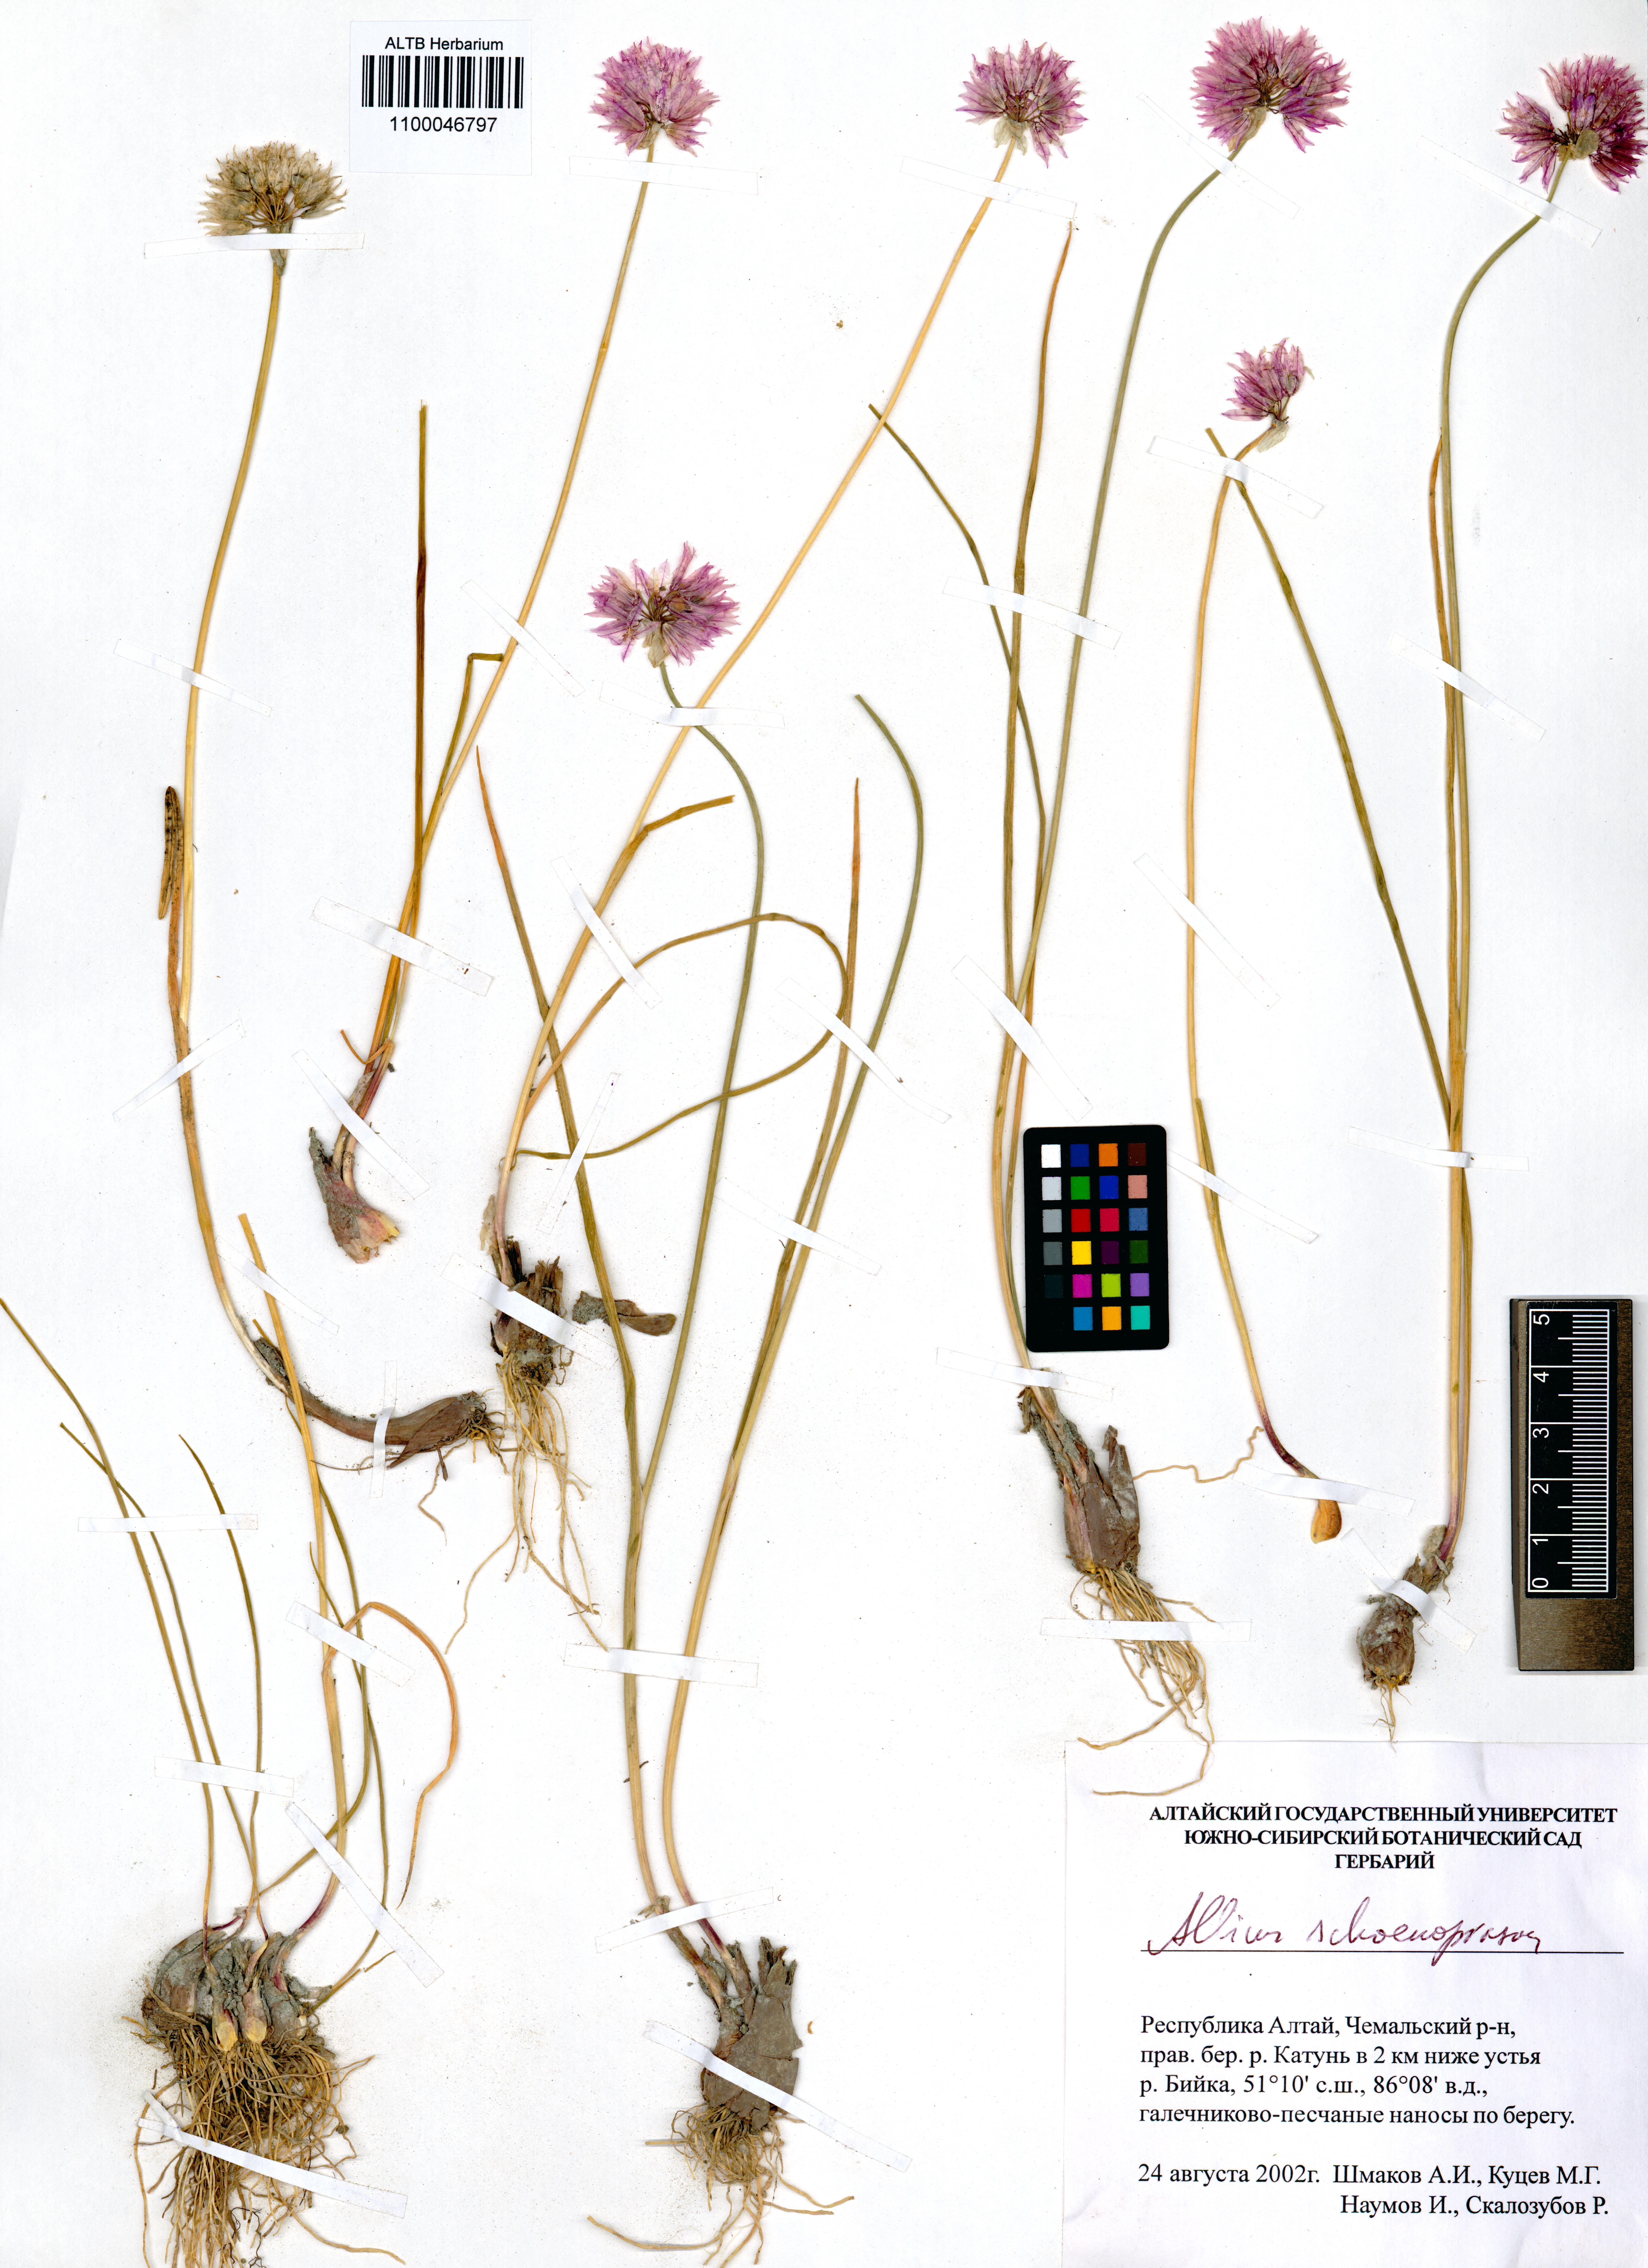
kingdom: Plantae
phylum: Tracheophyta
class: Liliopsida
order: Asparagales
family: Amaryllidaceae
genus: Allium
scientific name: Allium schoenoprasum
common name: Chives
